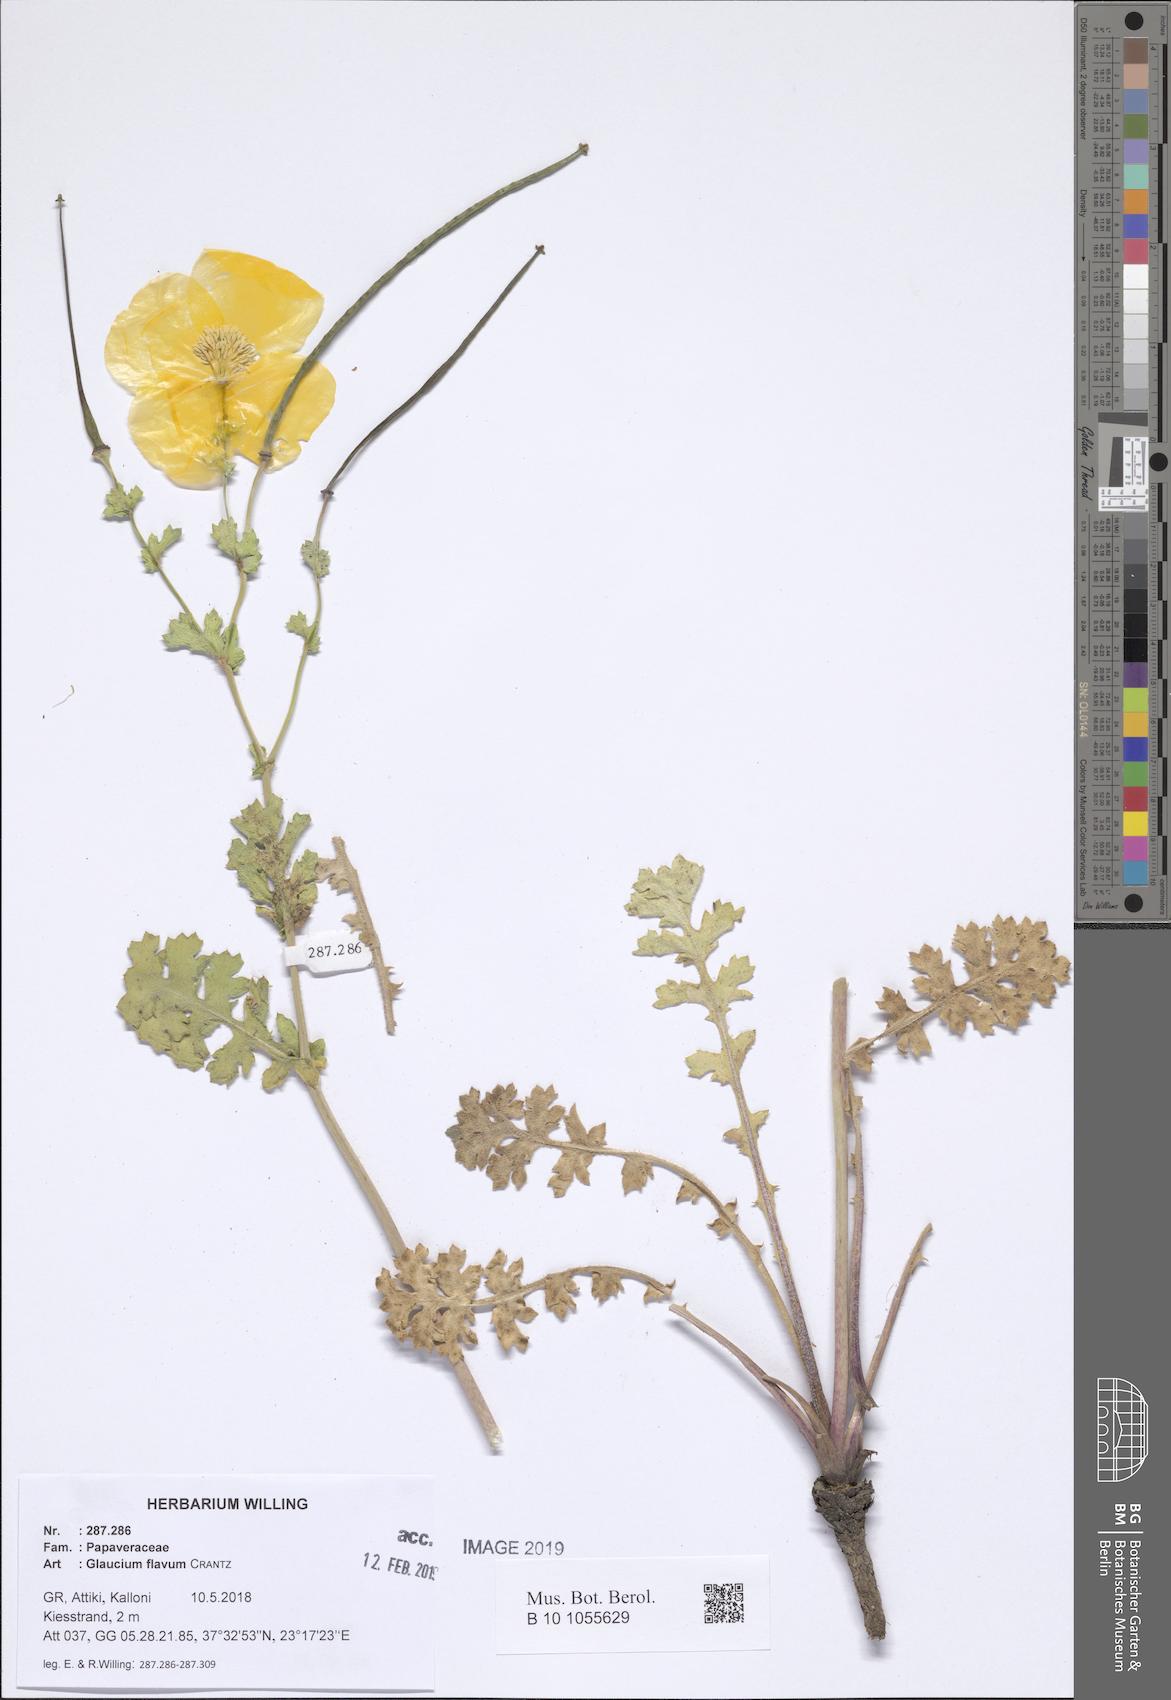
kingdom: Plantae
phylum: Tracheophyta
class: Magnoliopsida
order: Ranunculales
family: Papaveraceae
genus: Glaucium
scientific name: Glaucium flavum
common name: Yellow horned-poppy
